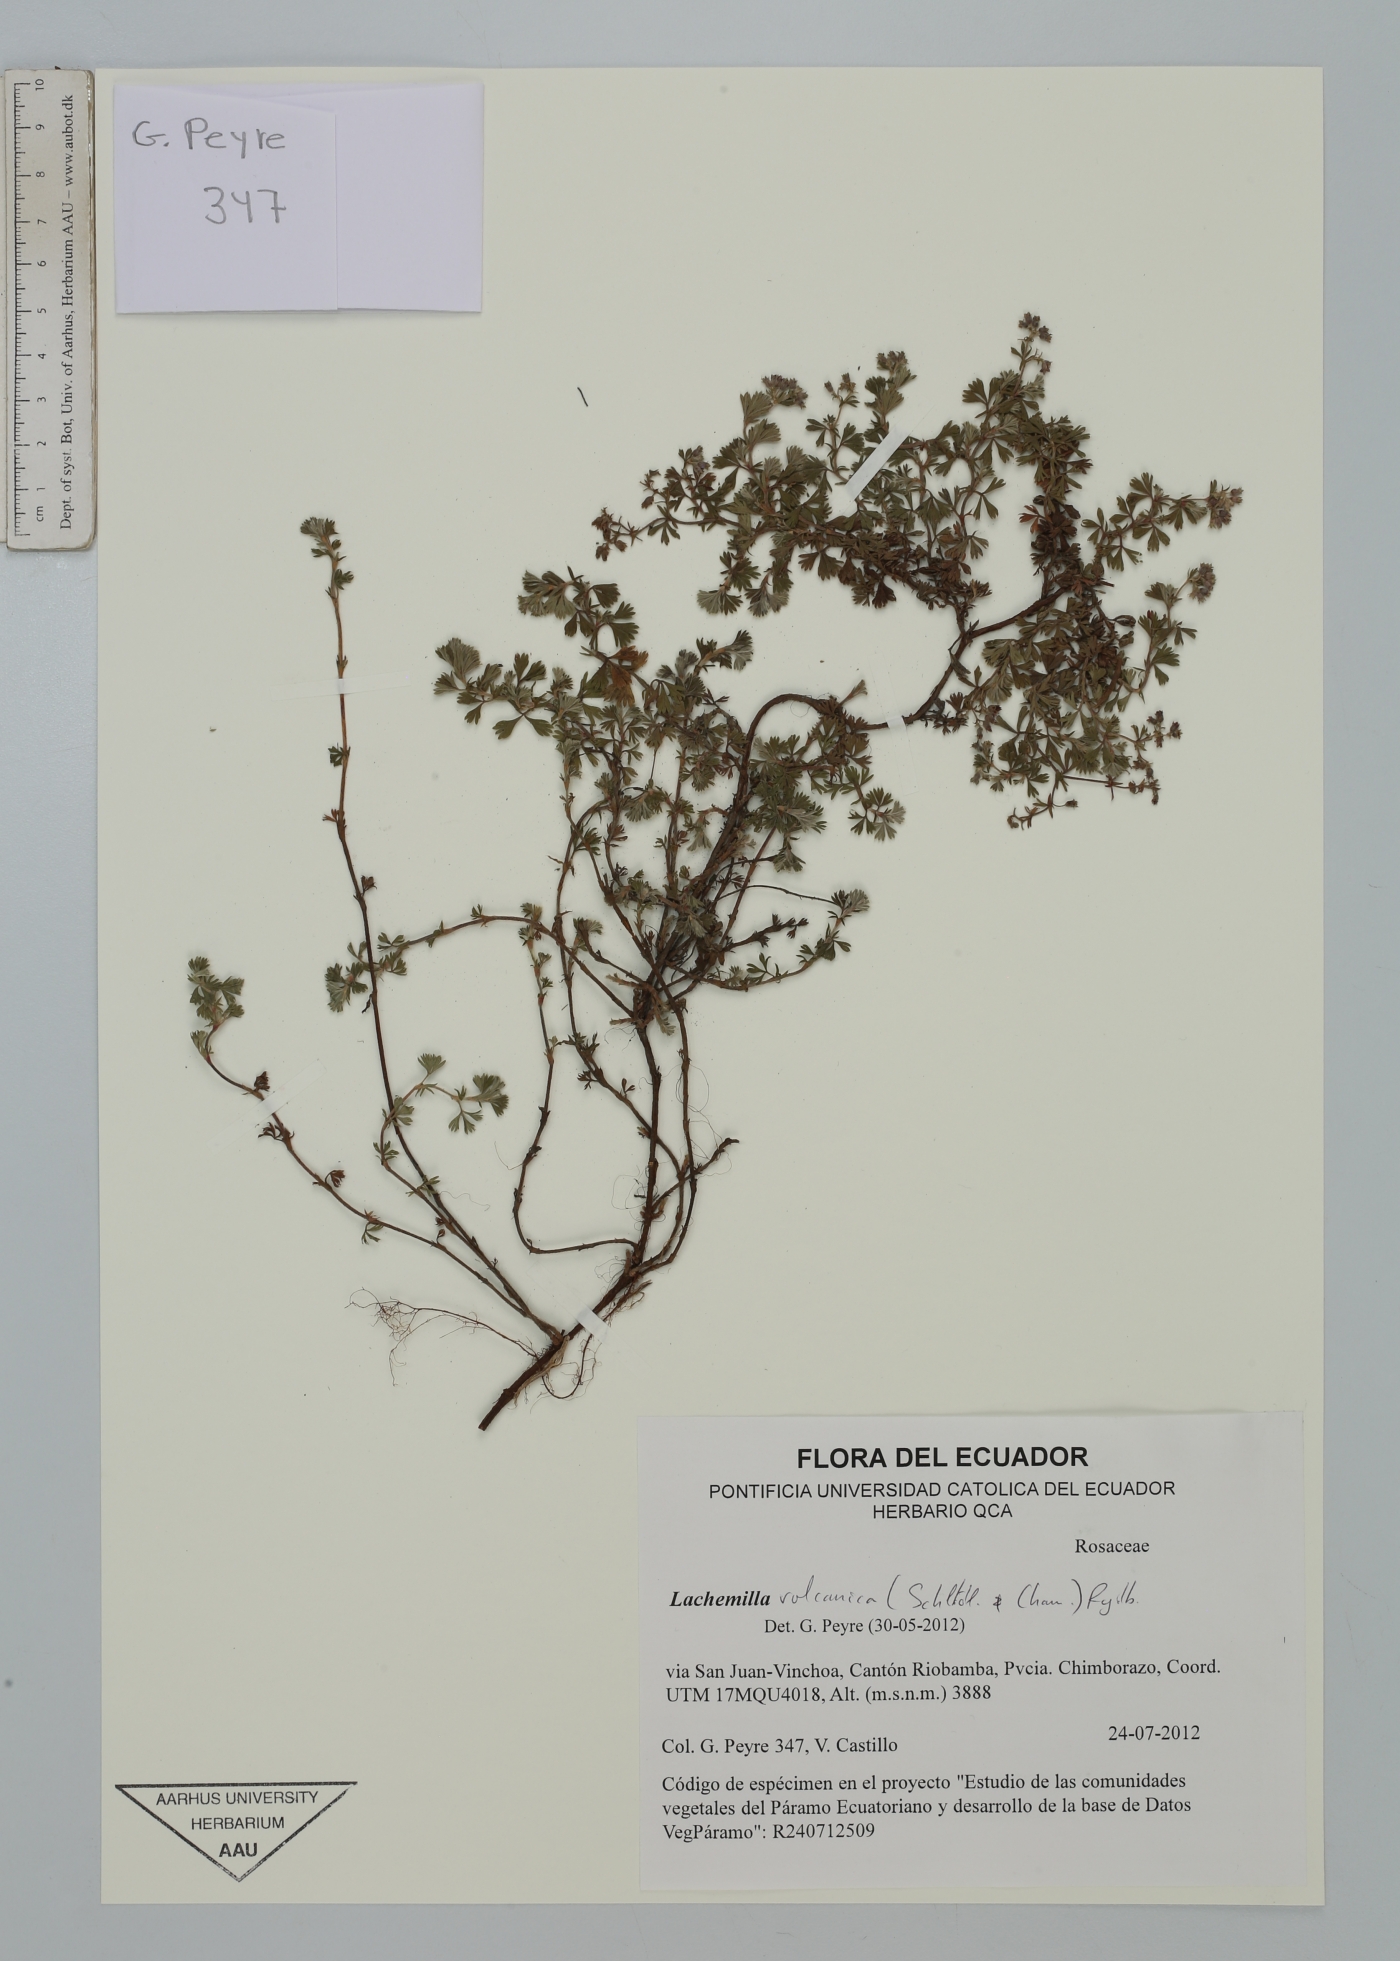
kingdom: Plantae
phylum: Tracheophyta
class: Magnoliopsida
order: Rosales
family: Rosaceae
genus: Lachemilla
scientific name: Lachemilla vulcanica
